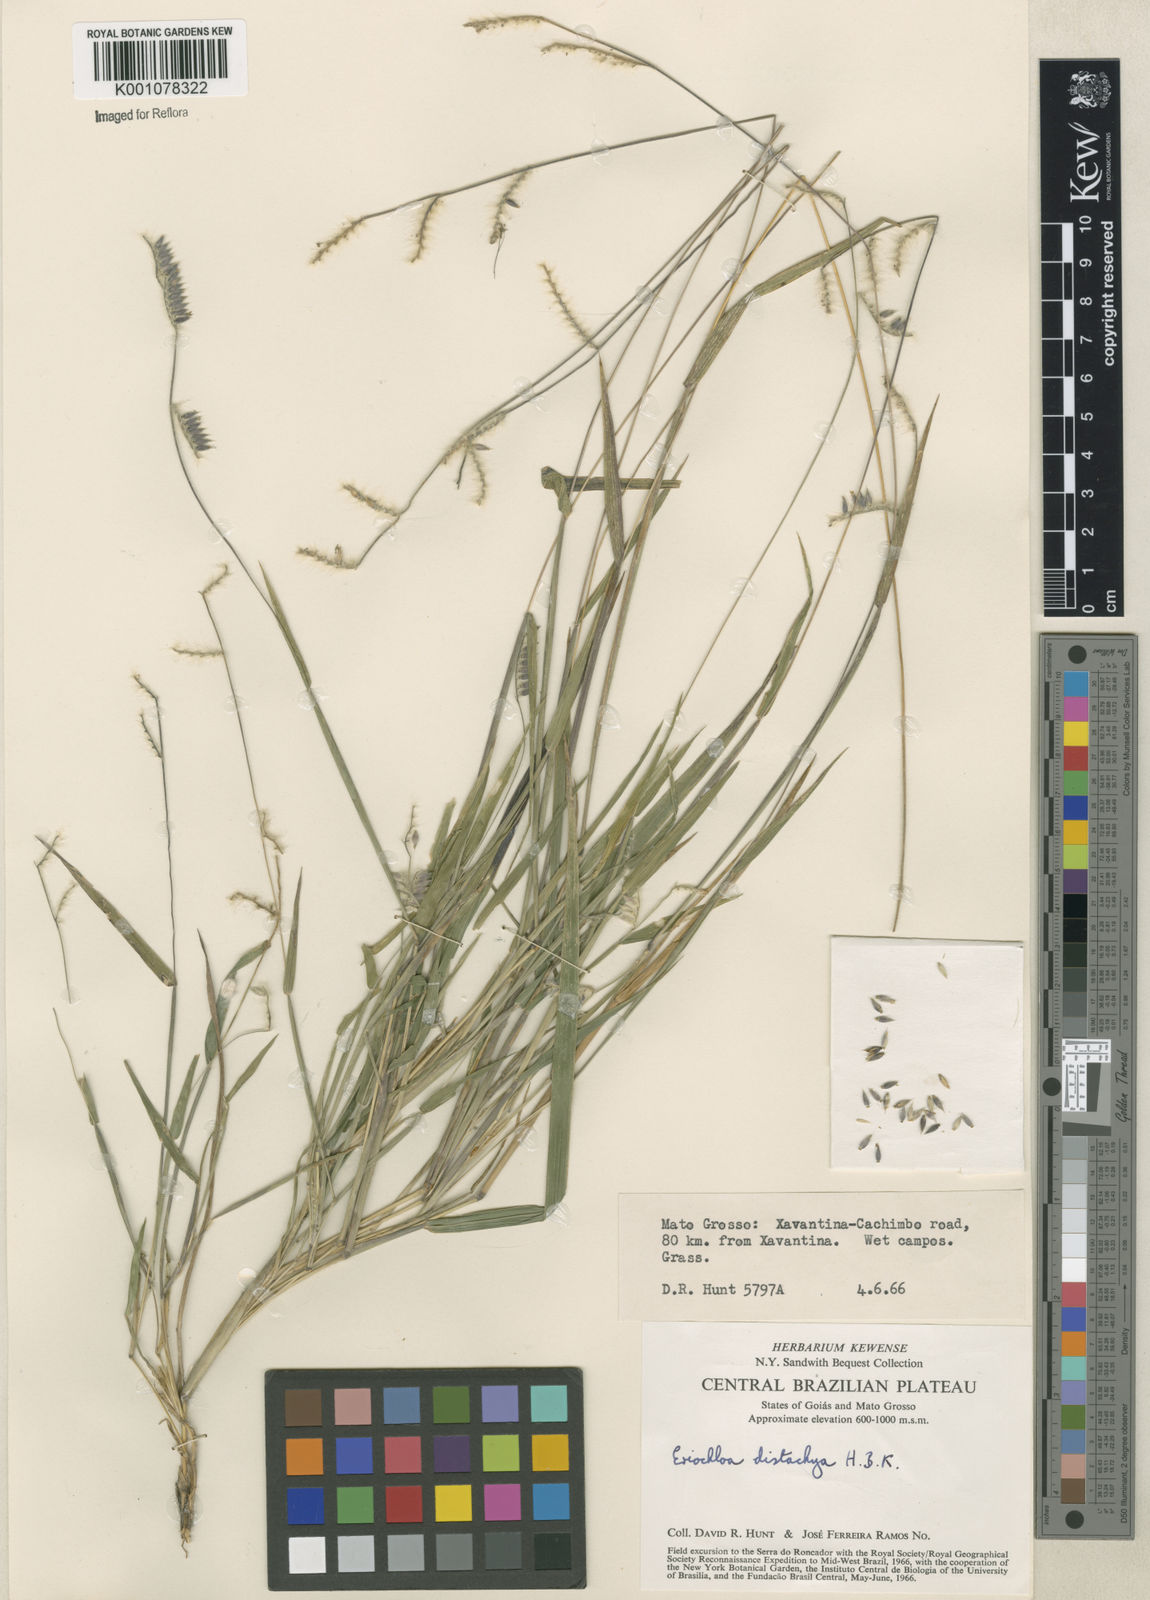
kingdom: Plantae
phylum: Tracheophyta
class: Liliopsida
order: Poales
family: Poaceae
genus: Eriochloa
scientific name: Eriochloa distachya
